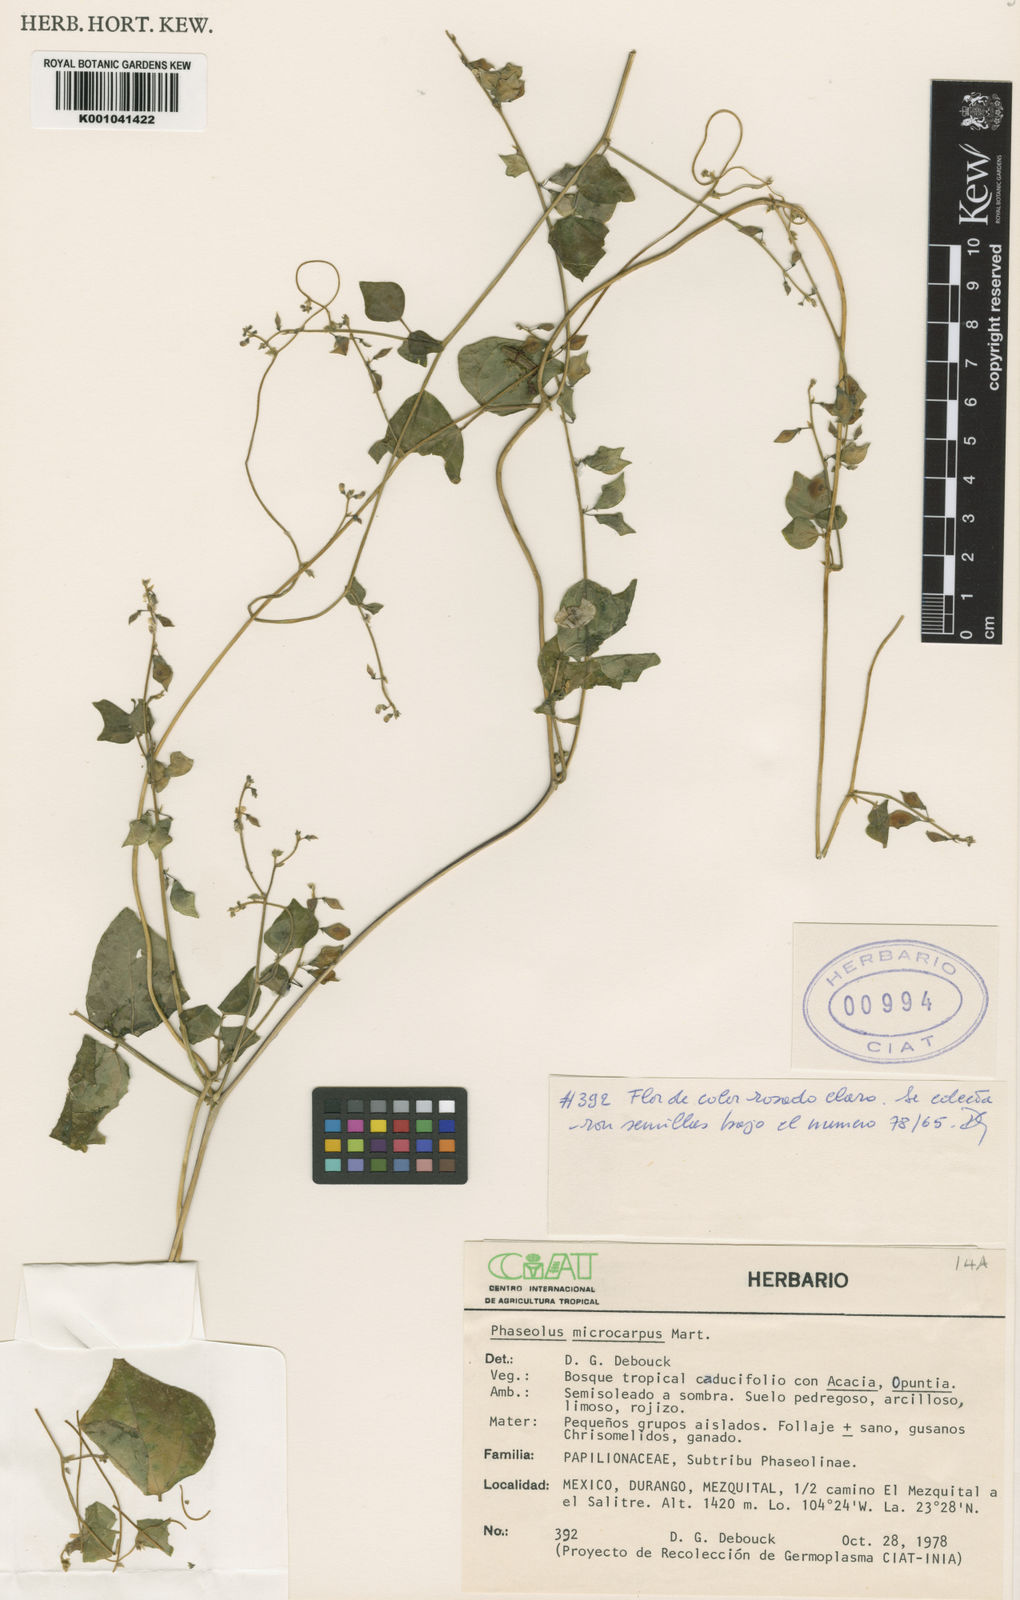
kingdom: Plantae
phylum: Tracheophyta
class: Magnoliopsida
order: Fabales
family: Fabaceae
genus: Phaseolus
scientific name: Phaseolus microcarpus
